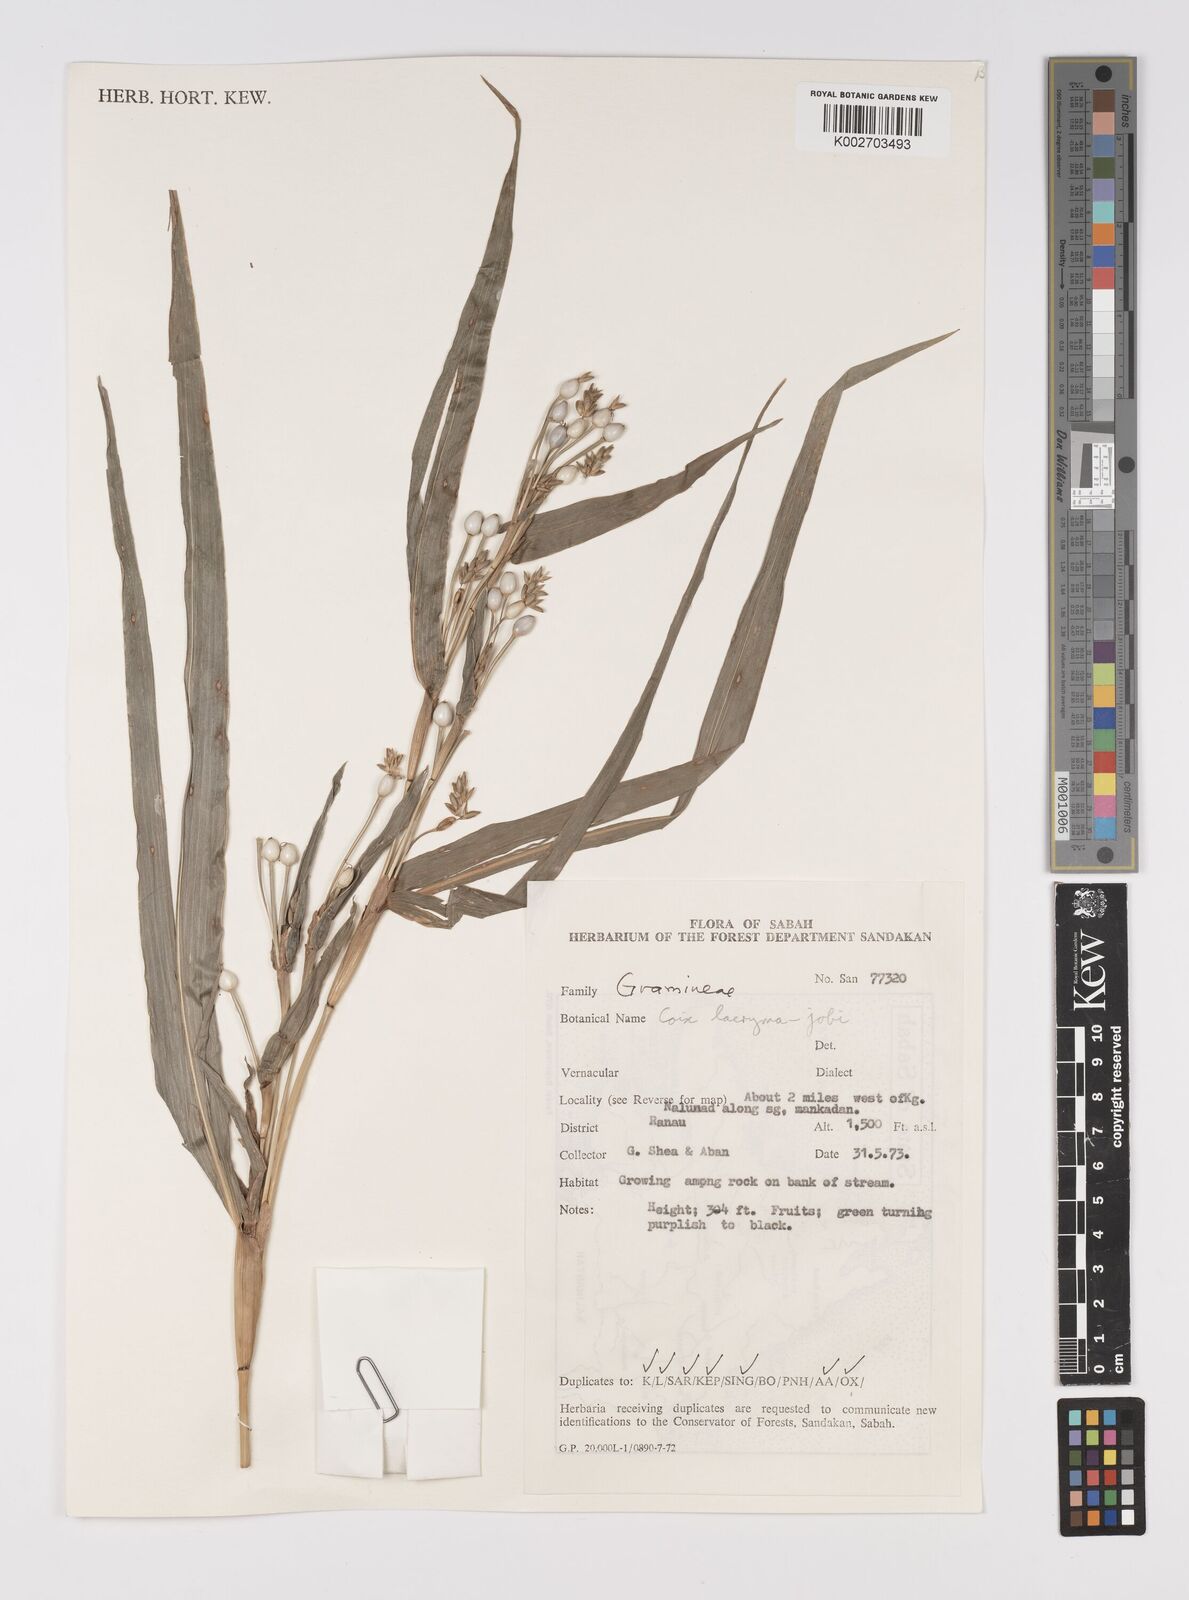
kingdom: Plantae
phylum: Tracheophyta
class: Liliopsida
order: Poales
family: Poaceae
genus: Coix
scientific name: Coix lacryma-jobi
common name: Job's tears
